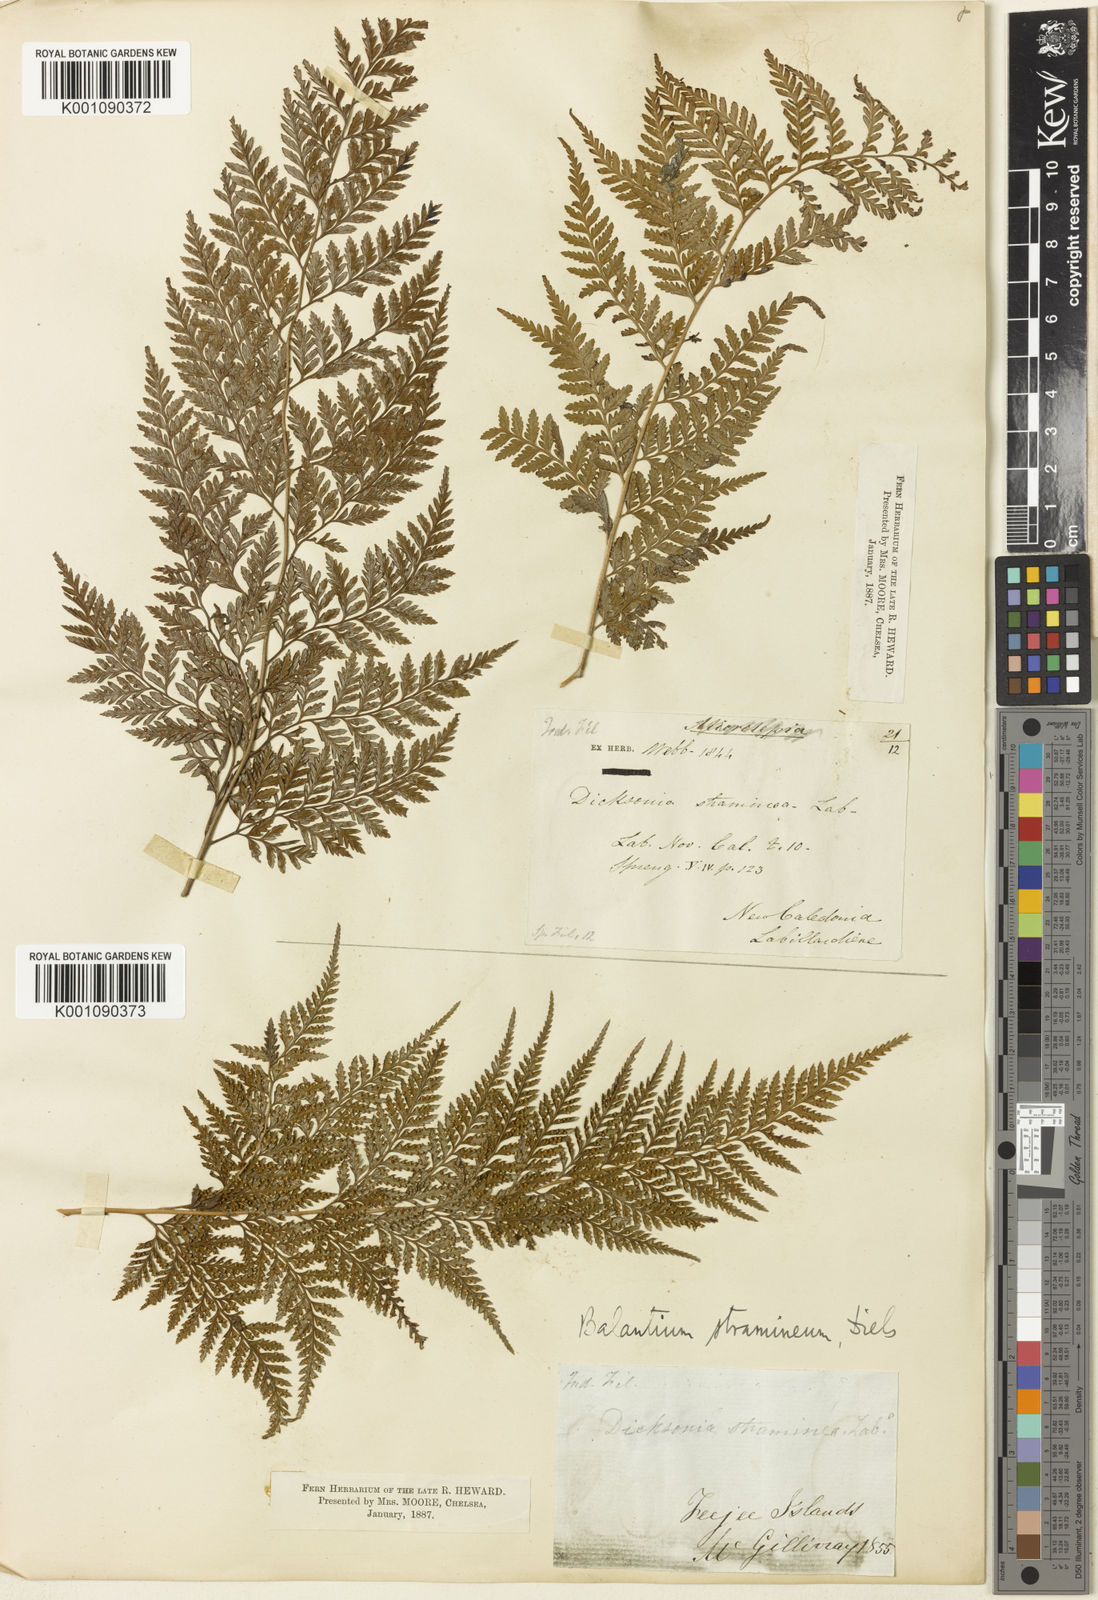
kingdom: Plantae
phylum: Tracheophyta
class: Polypodiopsida
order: Cyatheales
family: Dicksoniaceae
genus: Calochlaena
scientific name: Calochlaena straminea
